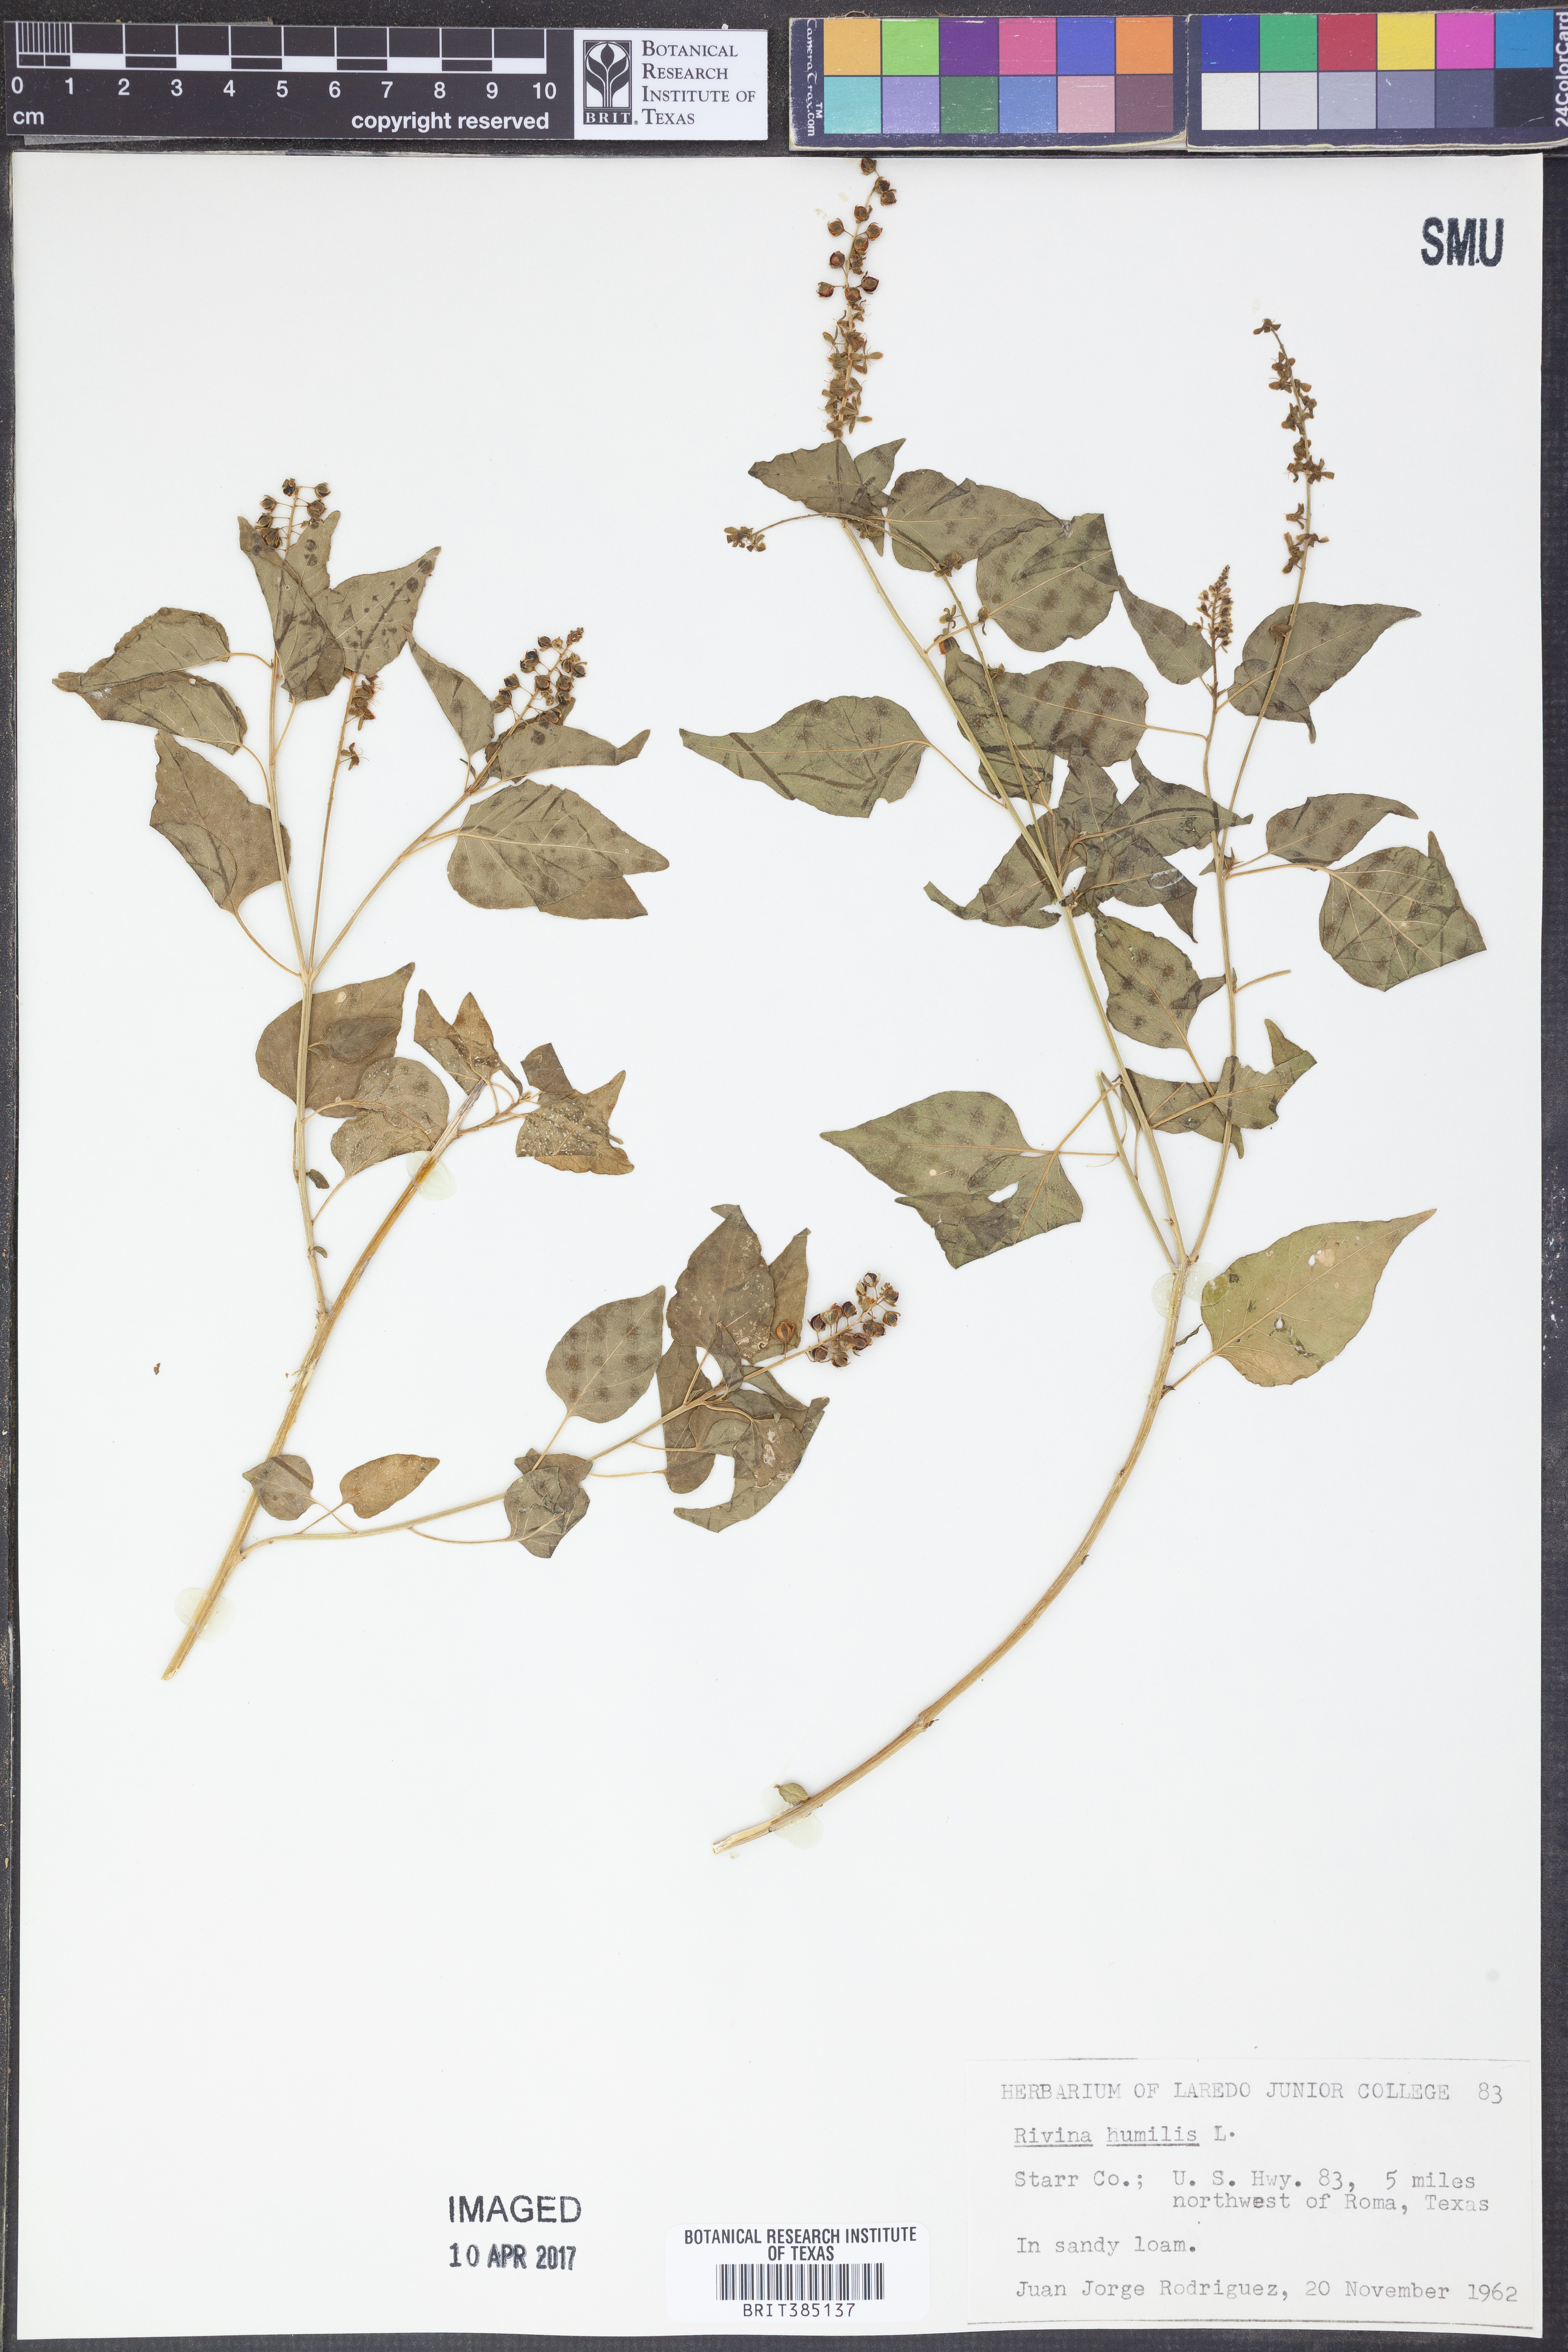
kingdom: Plantae
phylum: Tracheophyta
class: Magnoliopsida
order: Caryophyllales
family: Phytolaccaceae
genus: Rivina
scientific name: Rivina humilis
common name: Rougeplant
